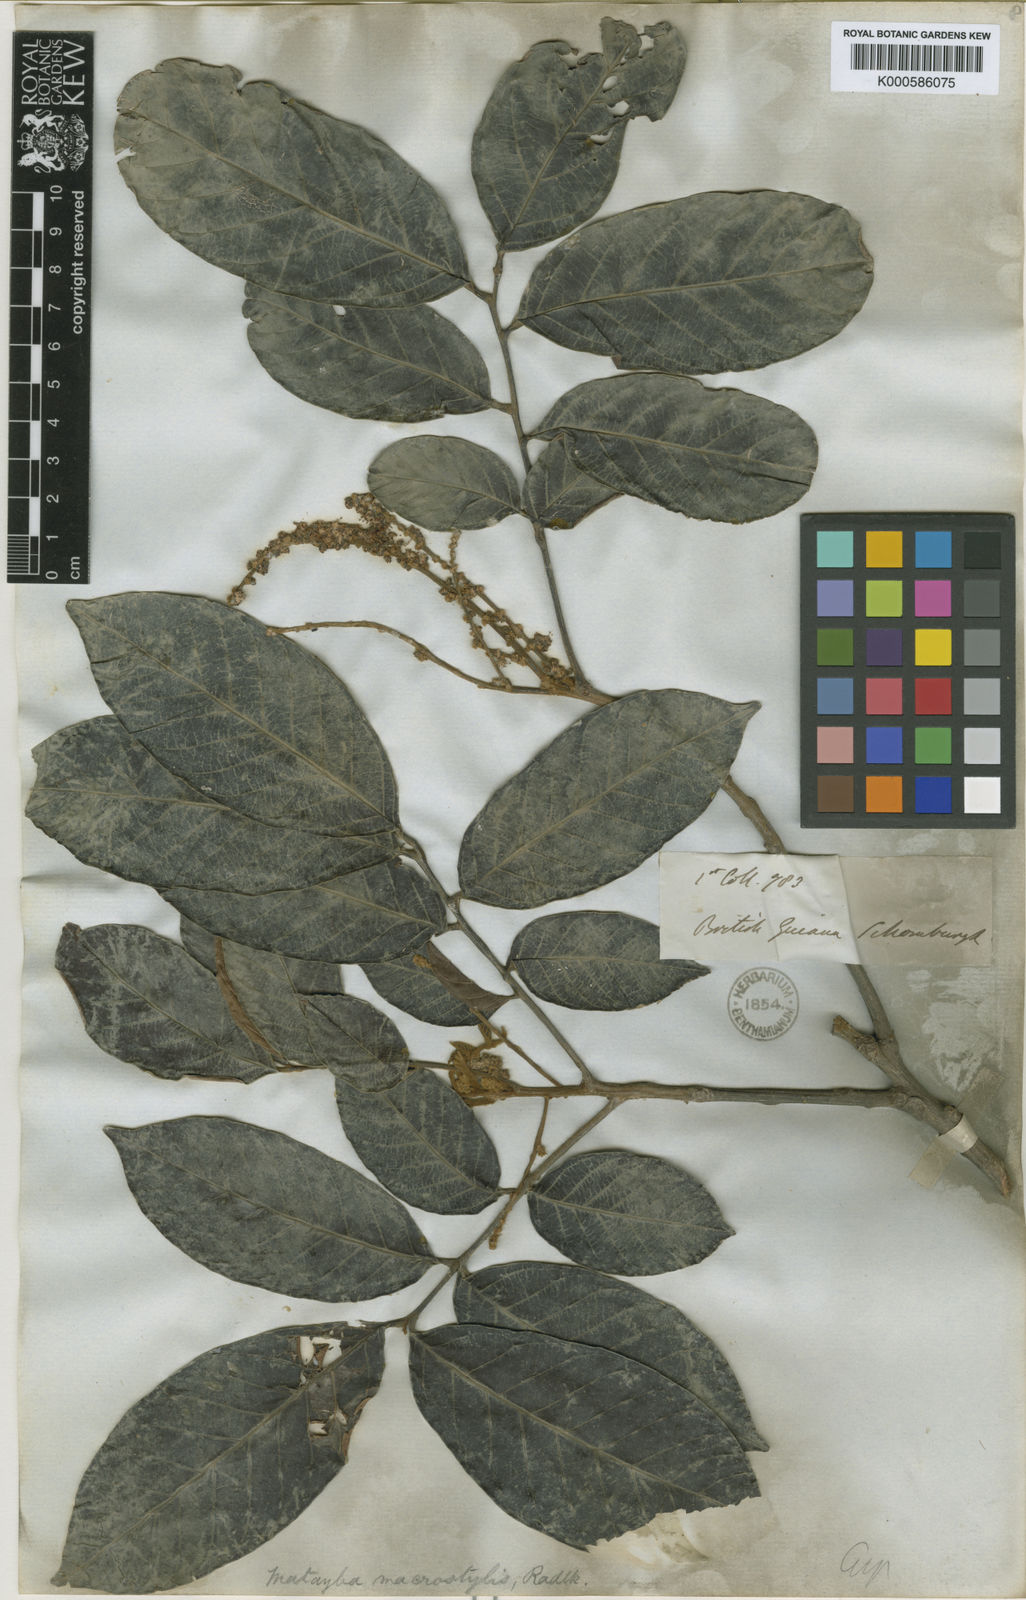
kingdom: Plantae
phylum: Tracheophyta
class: Magnoliopsida
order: Sapindales
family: Sapindaceae
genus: Cupania
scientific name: Cupania macrostylis
